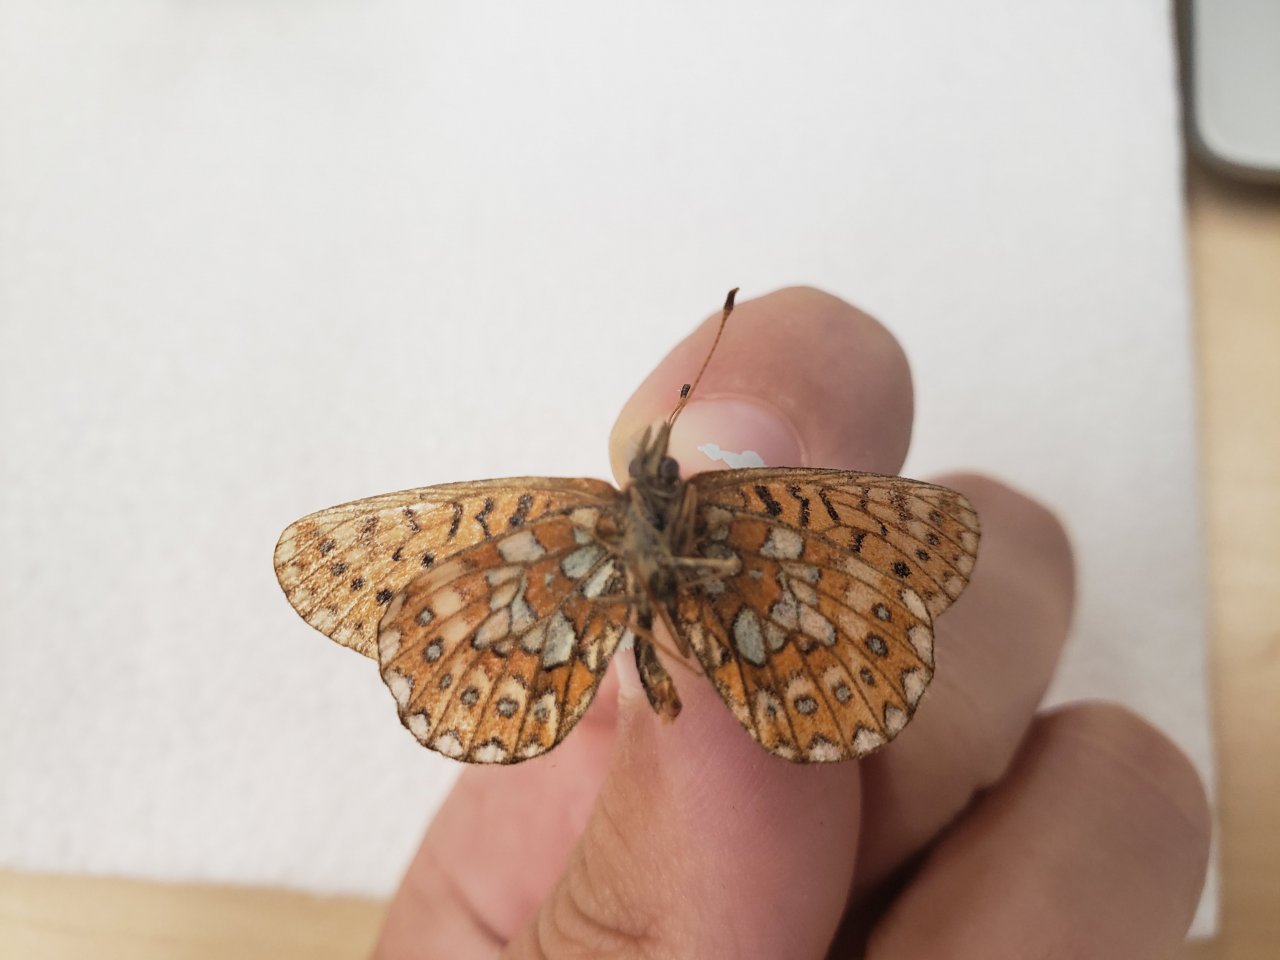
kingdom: Animalia
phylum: Arthropoda
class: Insecta
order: Lepidoptera
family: Nymphalidae
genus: Boloria
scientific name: Boloria eunomia
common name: Bog Fritillary
